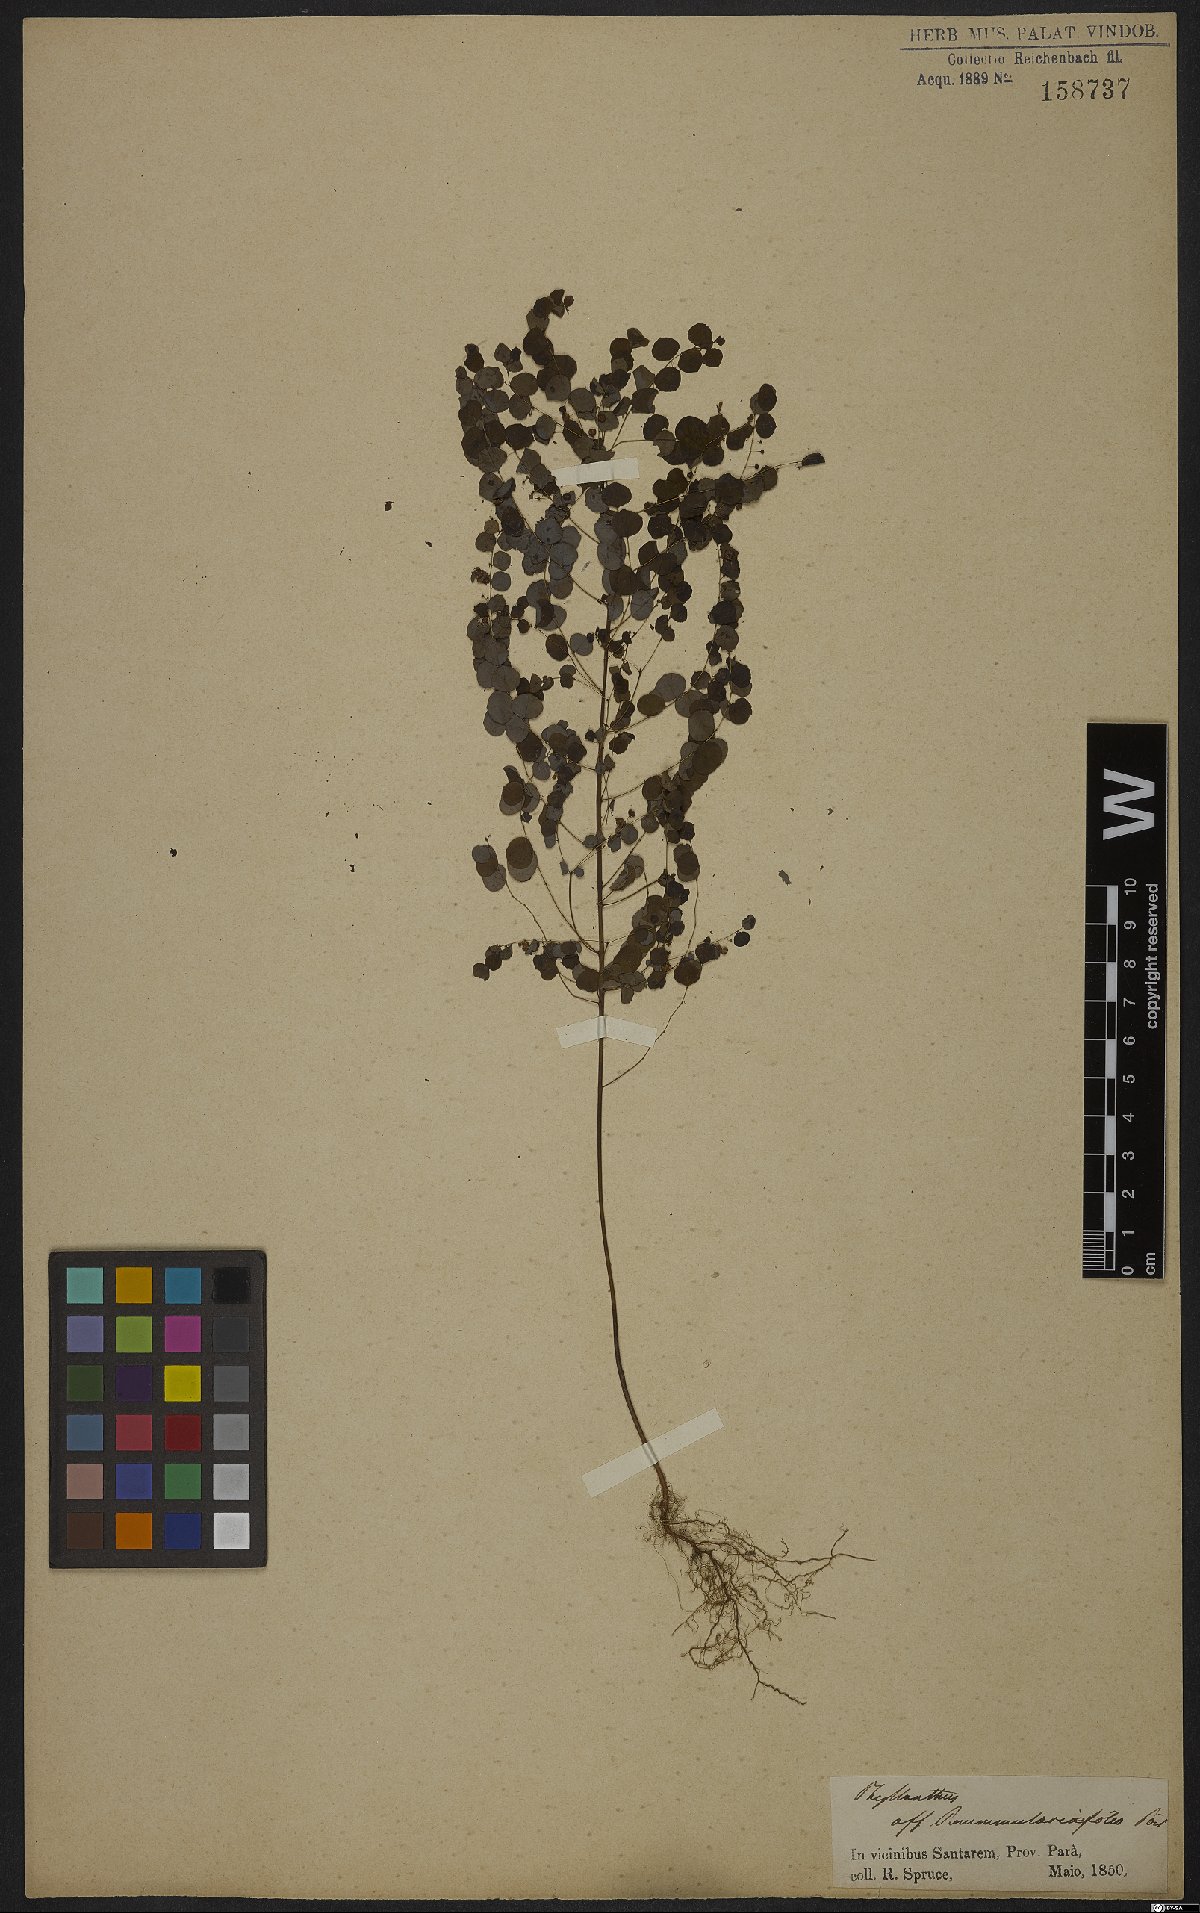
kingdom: Plantae
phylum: Tracheophyta
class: Magnoliopsida
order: Malpighiales
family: Phyllanthaceae
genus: Phyllanthus
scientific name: Phyllanthus orbiculatus
